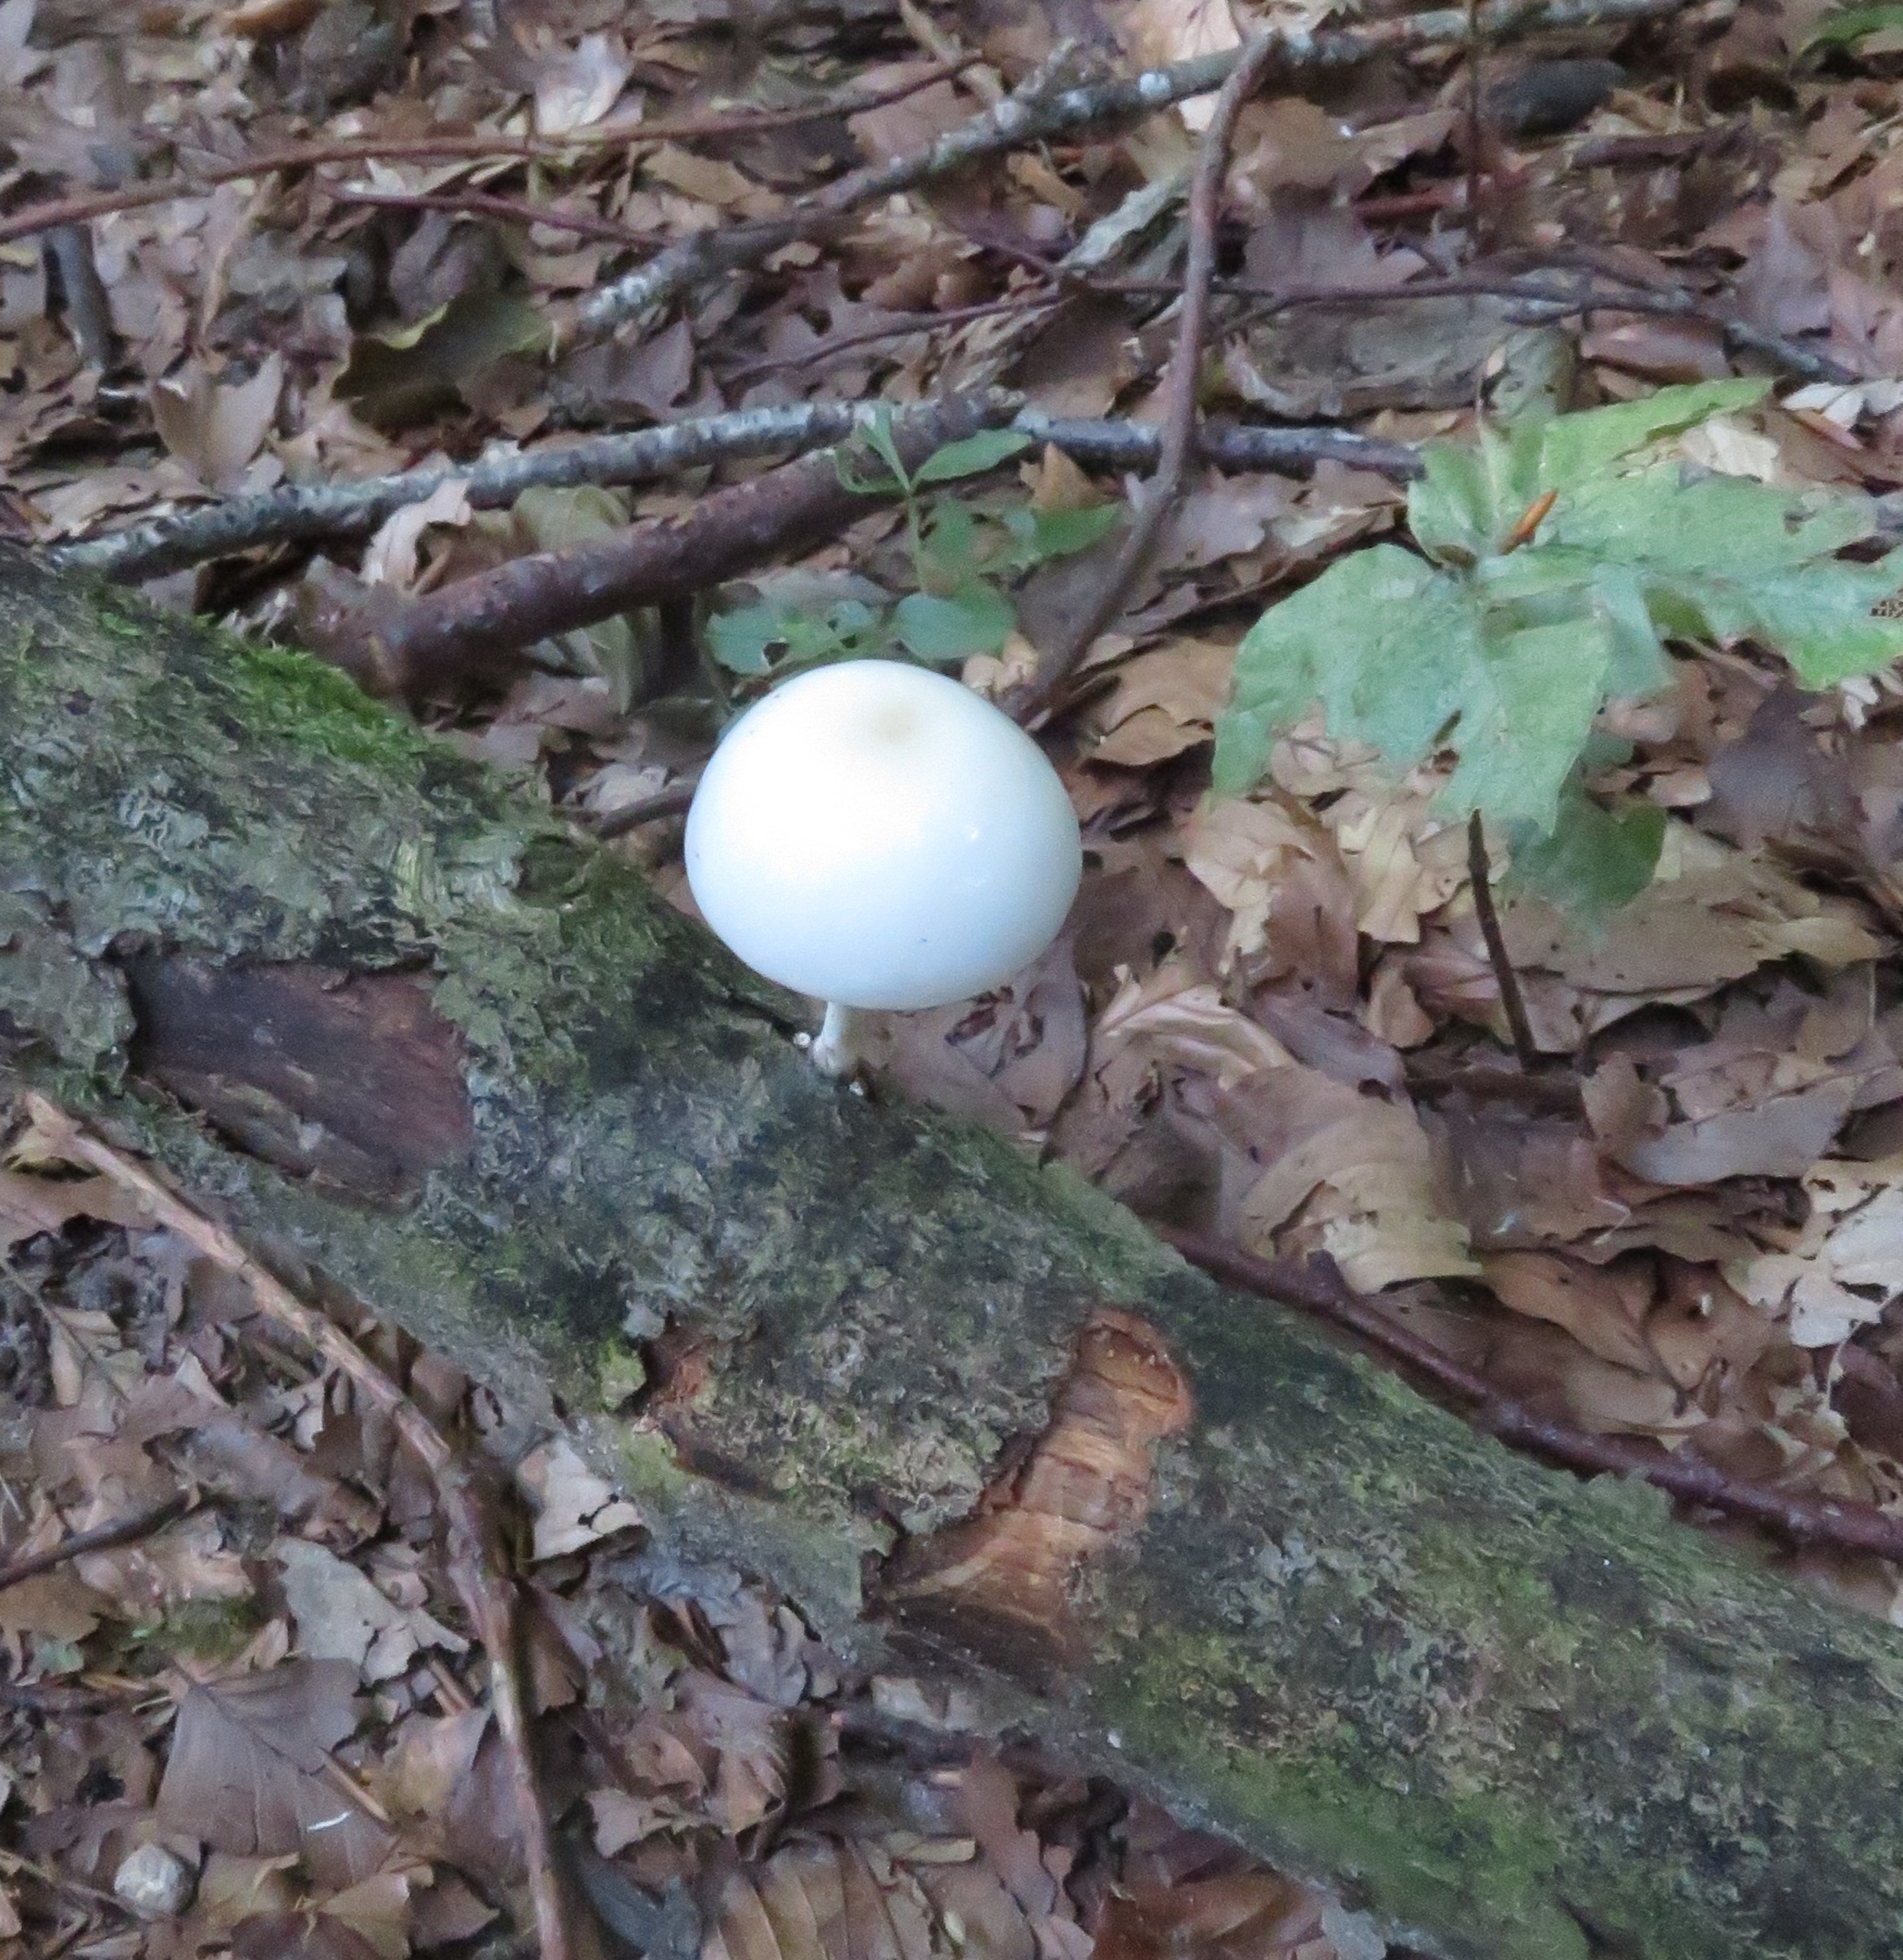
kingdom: Fungi
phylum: Basidiomycota
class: Agaricomycetes
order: Agaricales
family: Physalacriaceae
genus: Mucidula
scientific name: Mucidula mucida
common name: Porcelænshat
